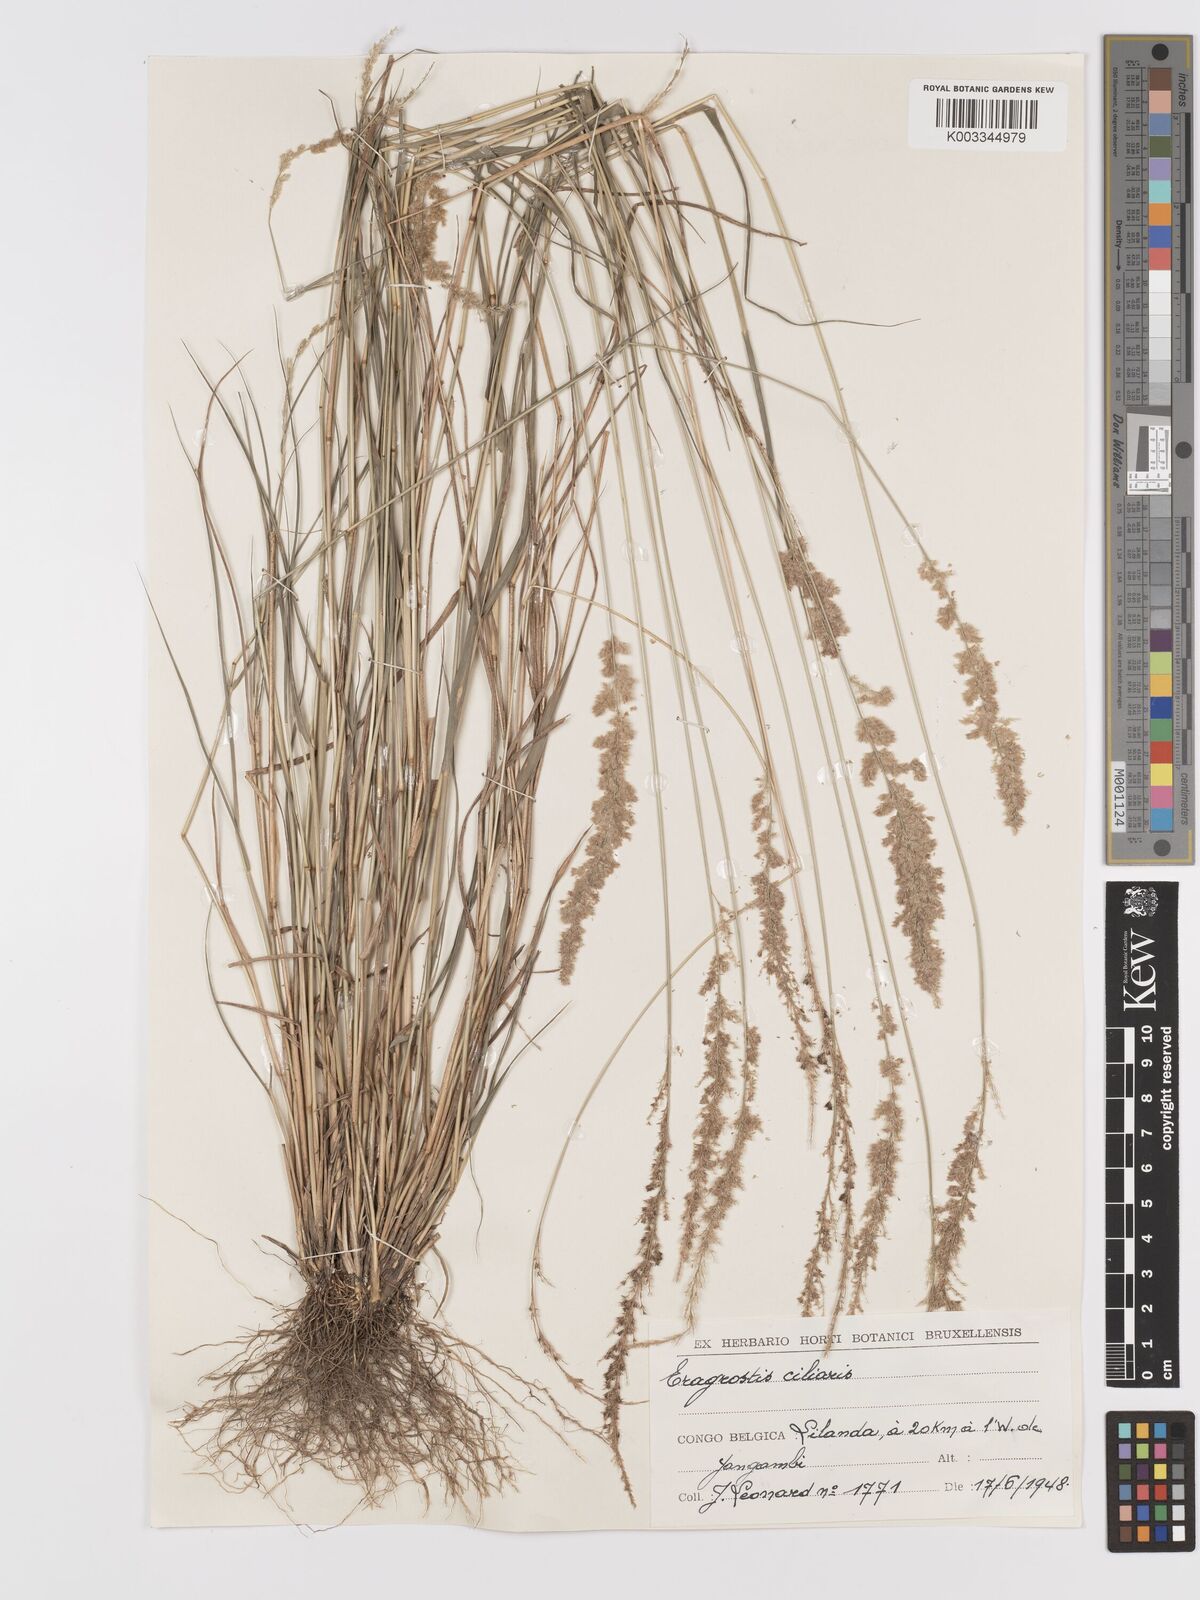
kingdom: Plantae
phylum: Tracheophyta
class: Liliopsida
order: Poales
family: Poaceae
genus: Eragrostis
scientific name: Eragrostis ciliaris
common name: Gophertail lovegrass
